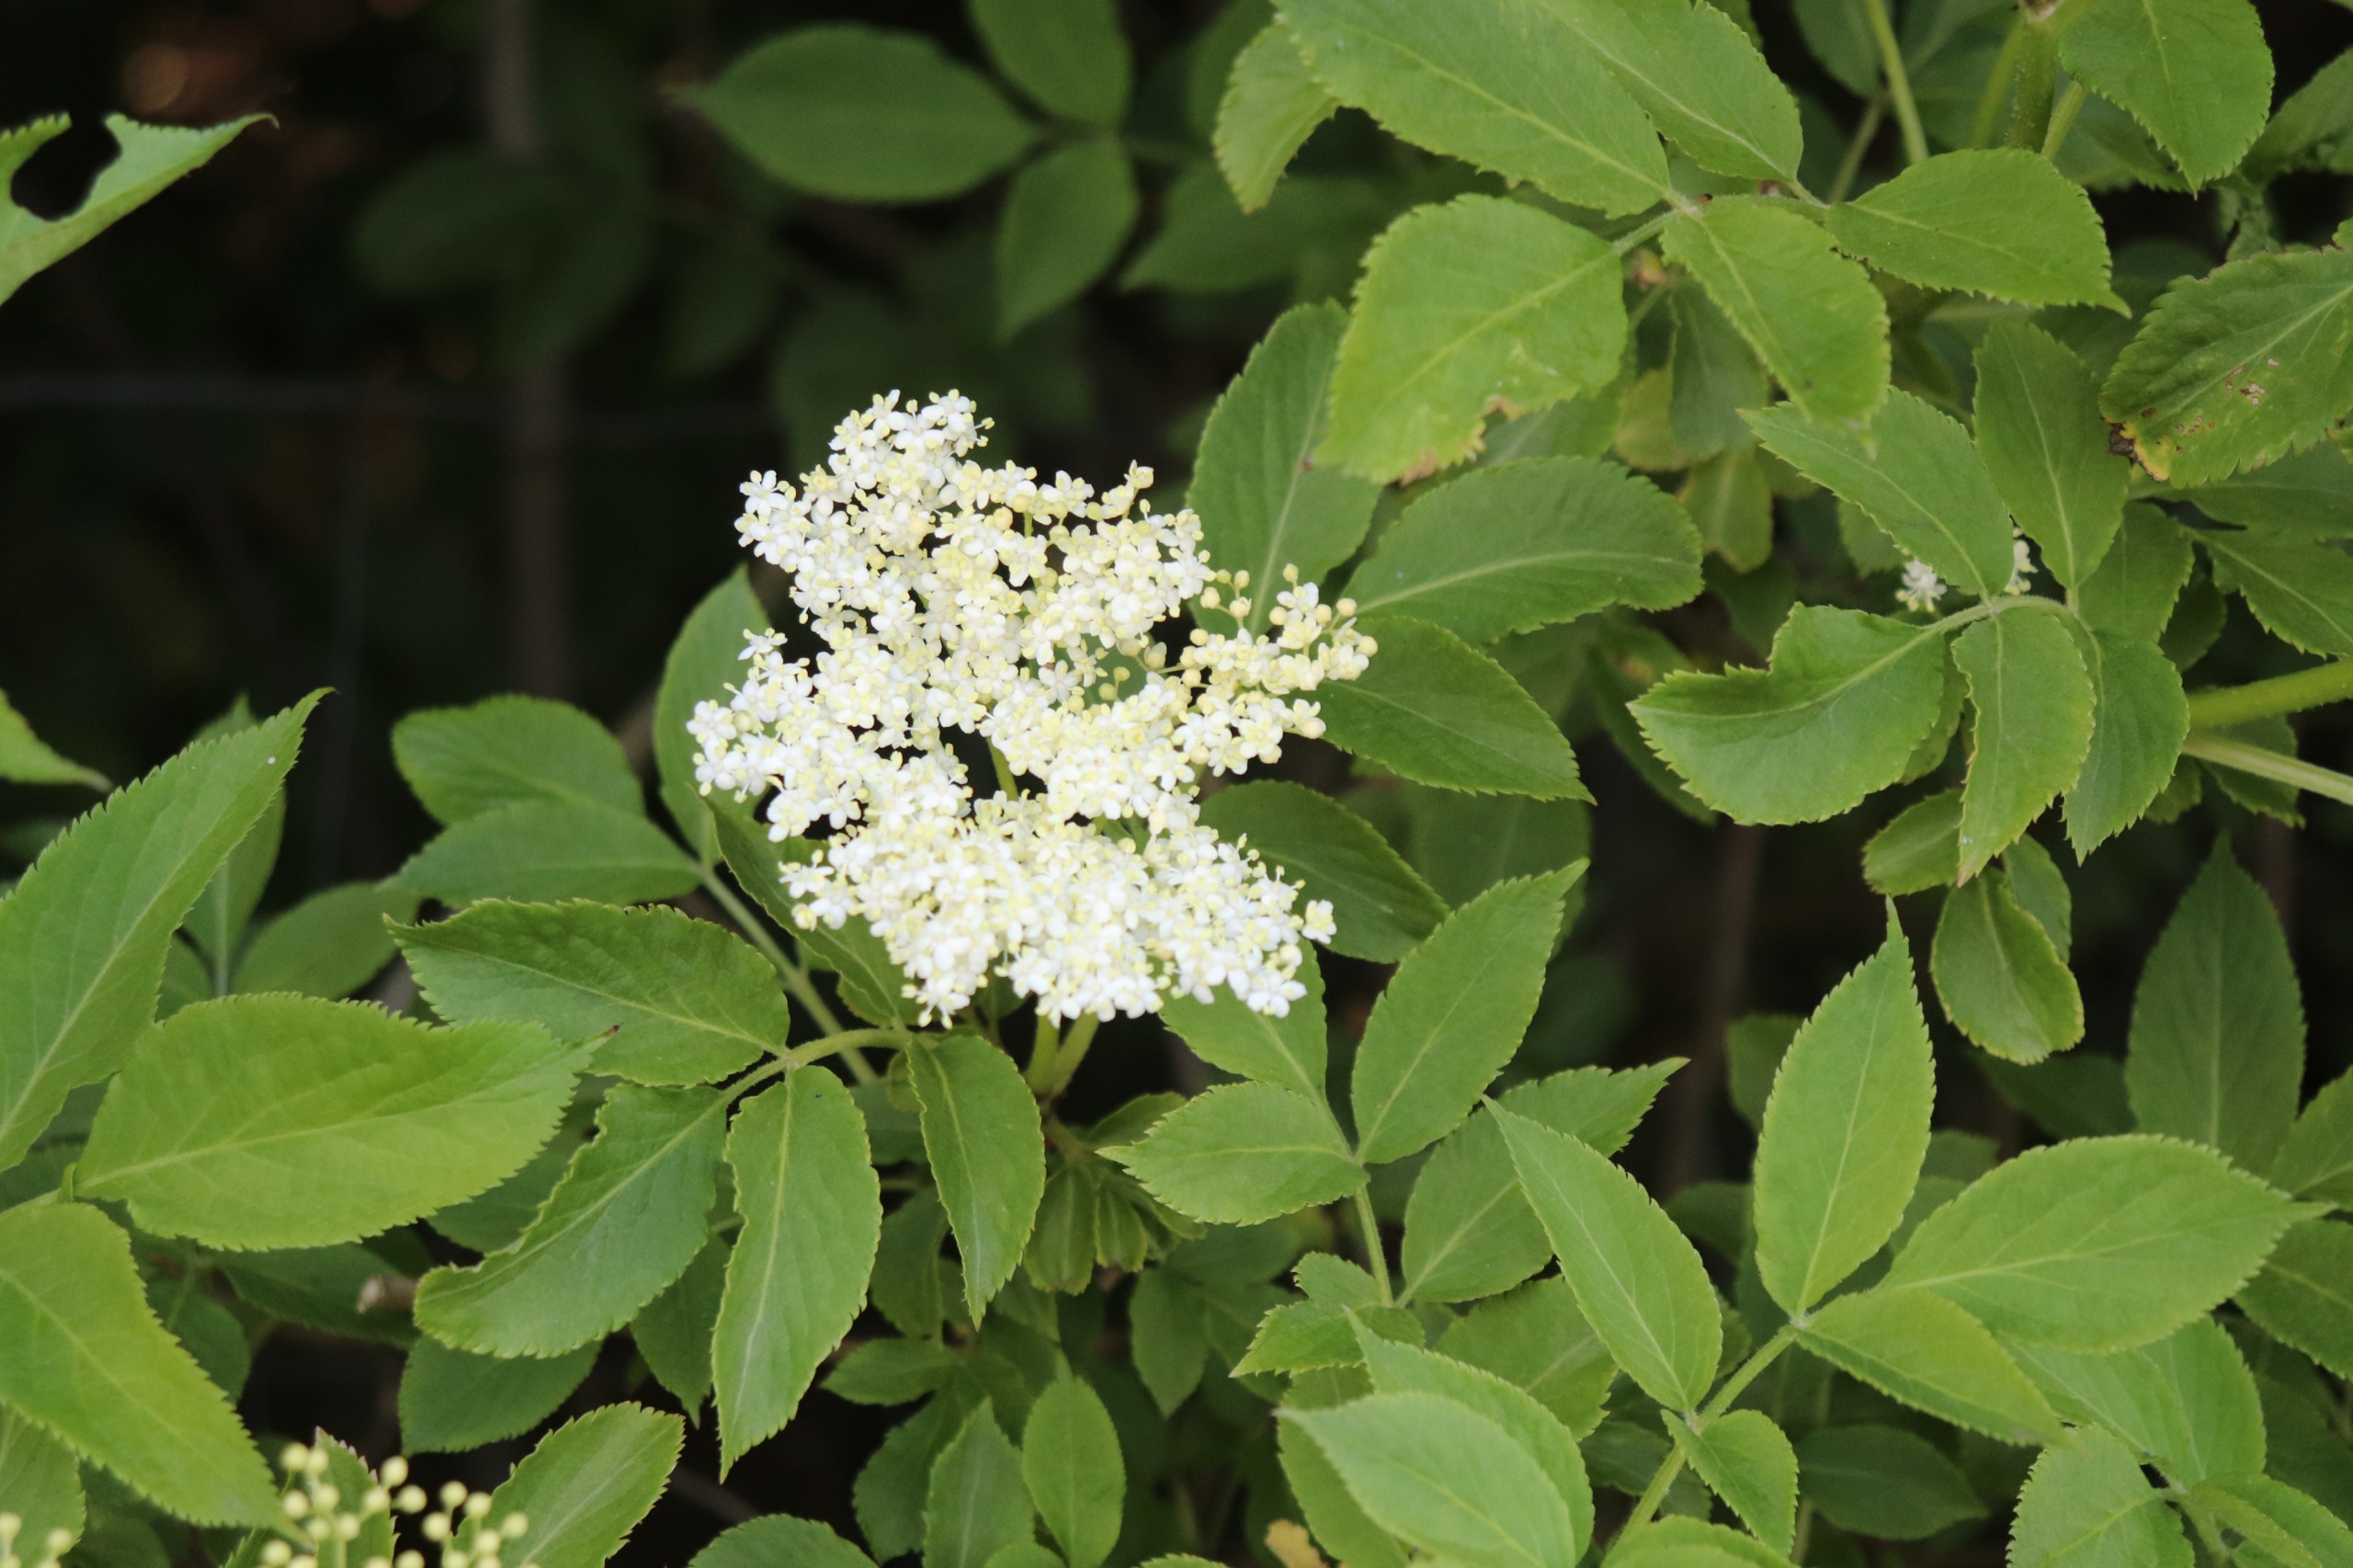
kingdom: Plantae
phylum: Tracheophyta
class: Magnoliopsida
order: Dipsacales
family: Viburnaceae
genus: Sambucus
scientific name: Sambucus nigra
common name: Almindelig hyld
